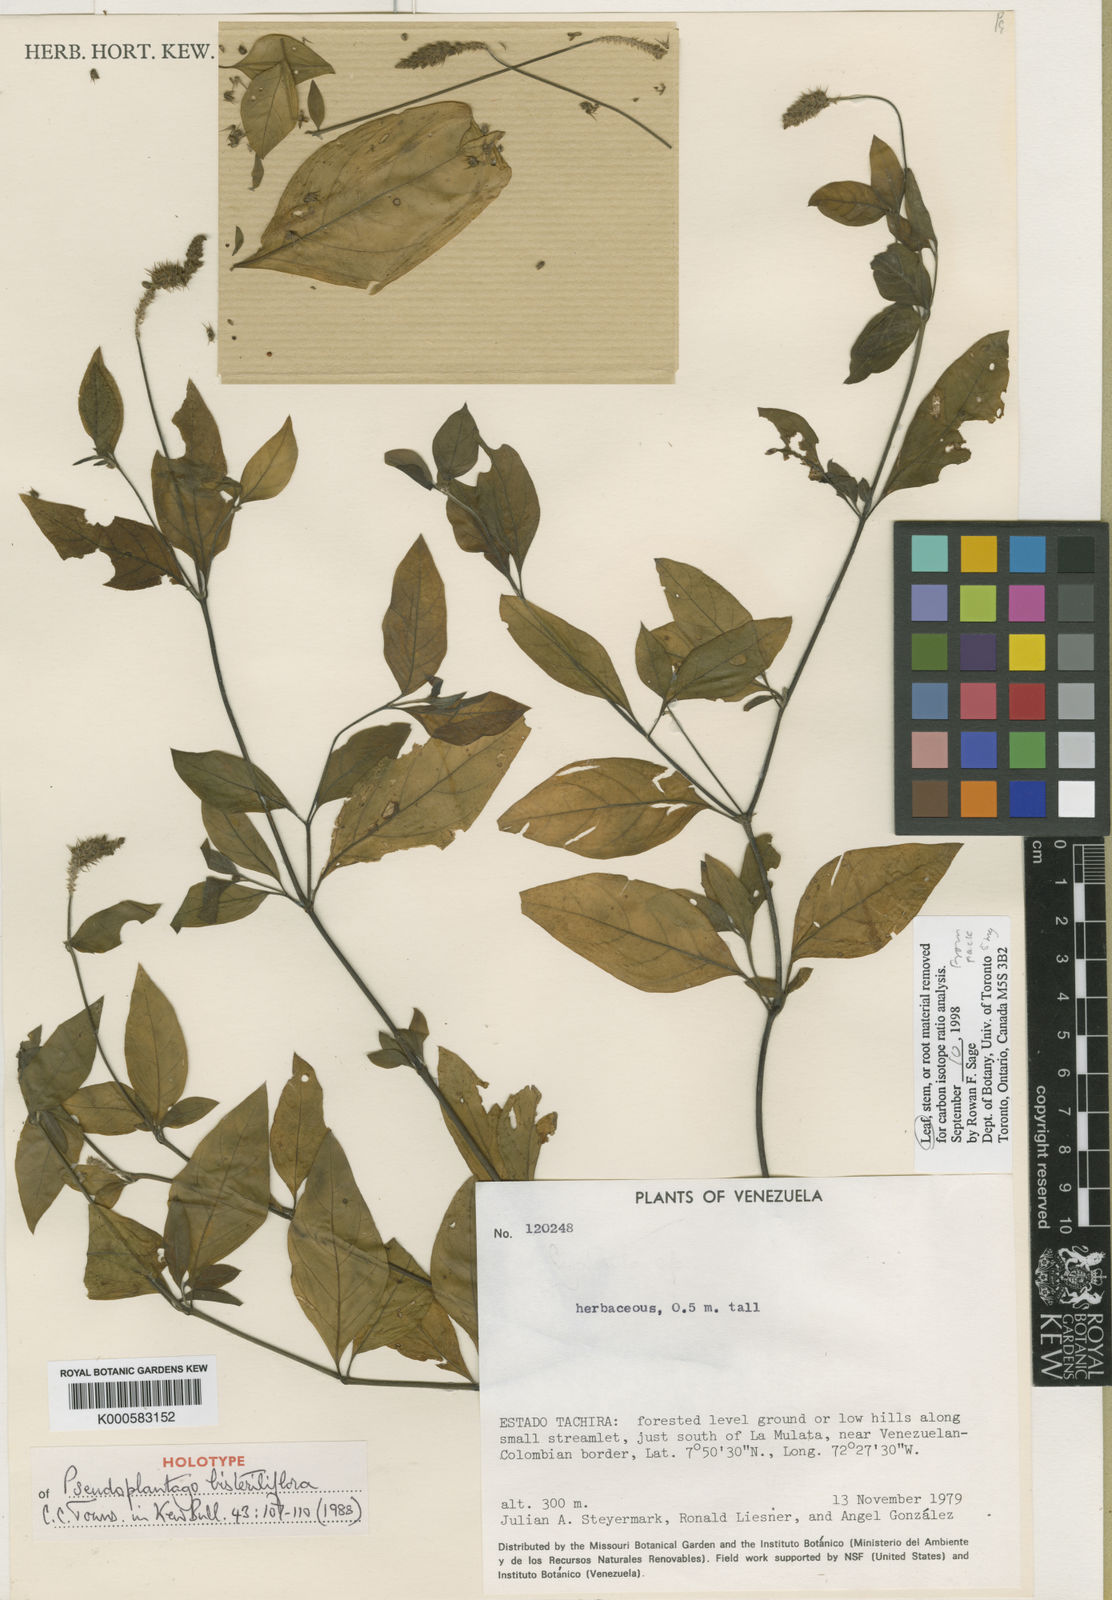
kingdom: Plantae
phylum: Tracheophyta
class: Magnoliopsida
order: Caryophyllales
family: Amaranthaceae
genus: Pseudoplantago
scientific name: Pseudoplantago bisteriliflora
